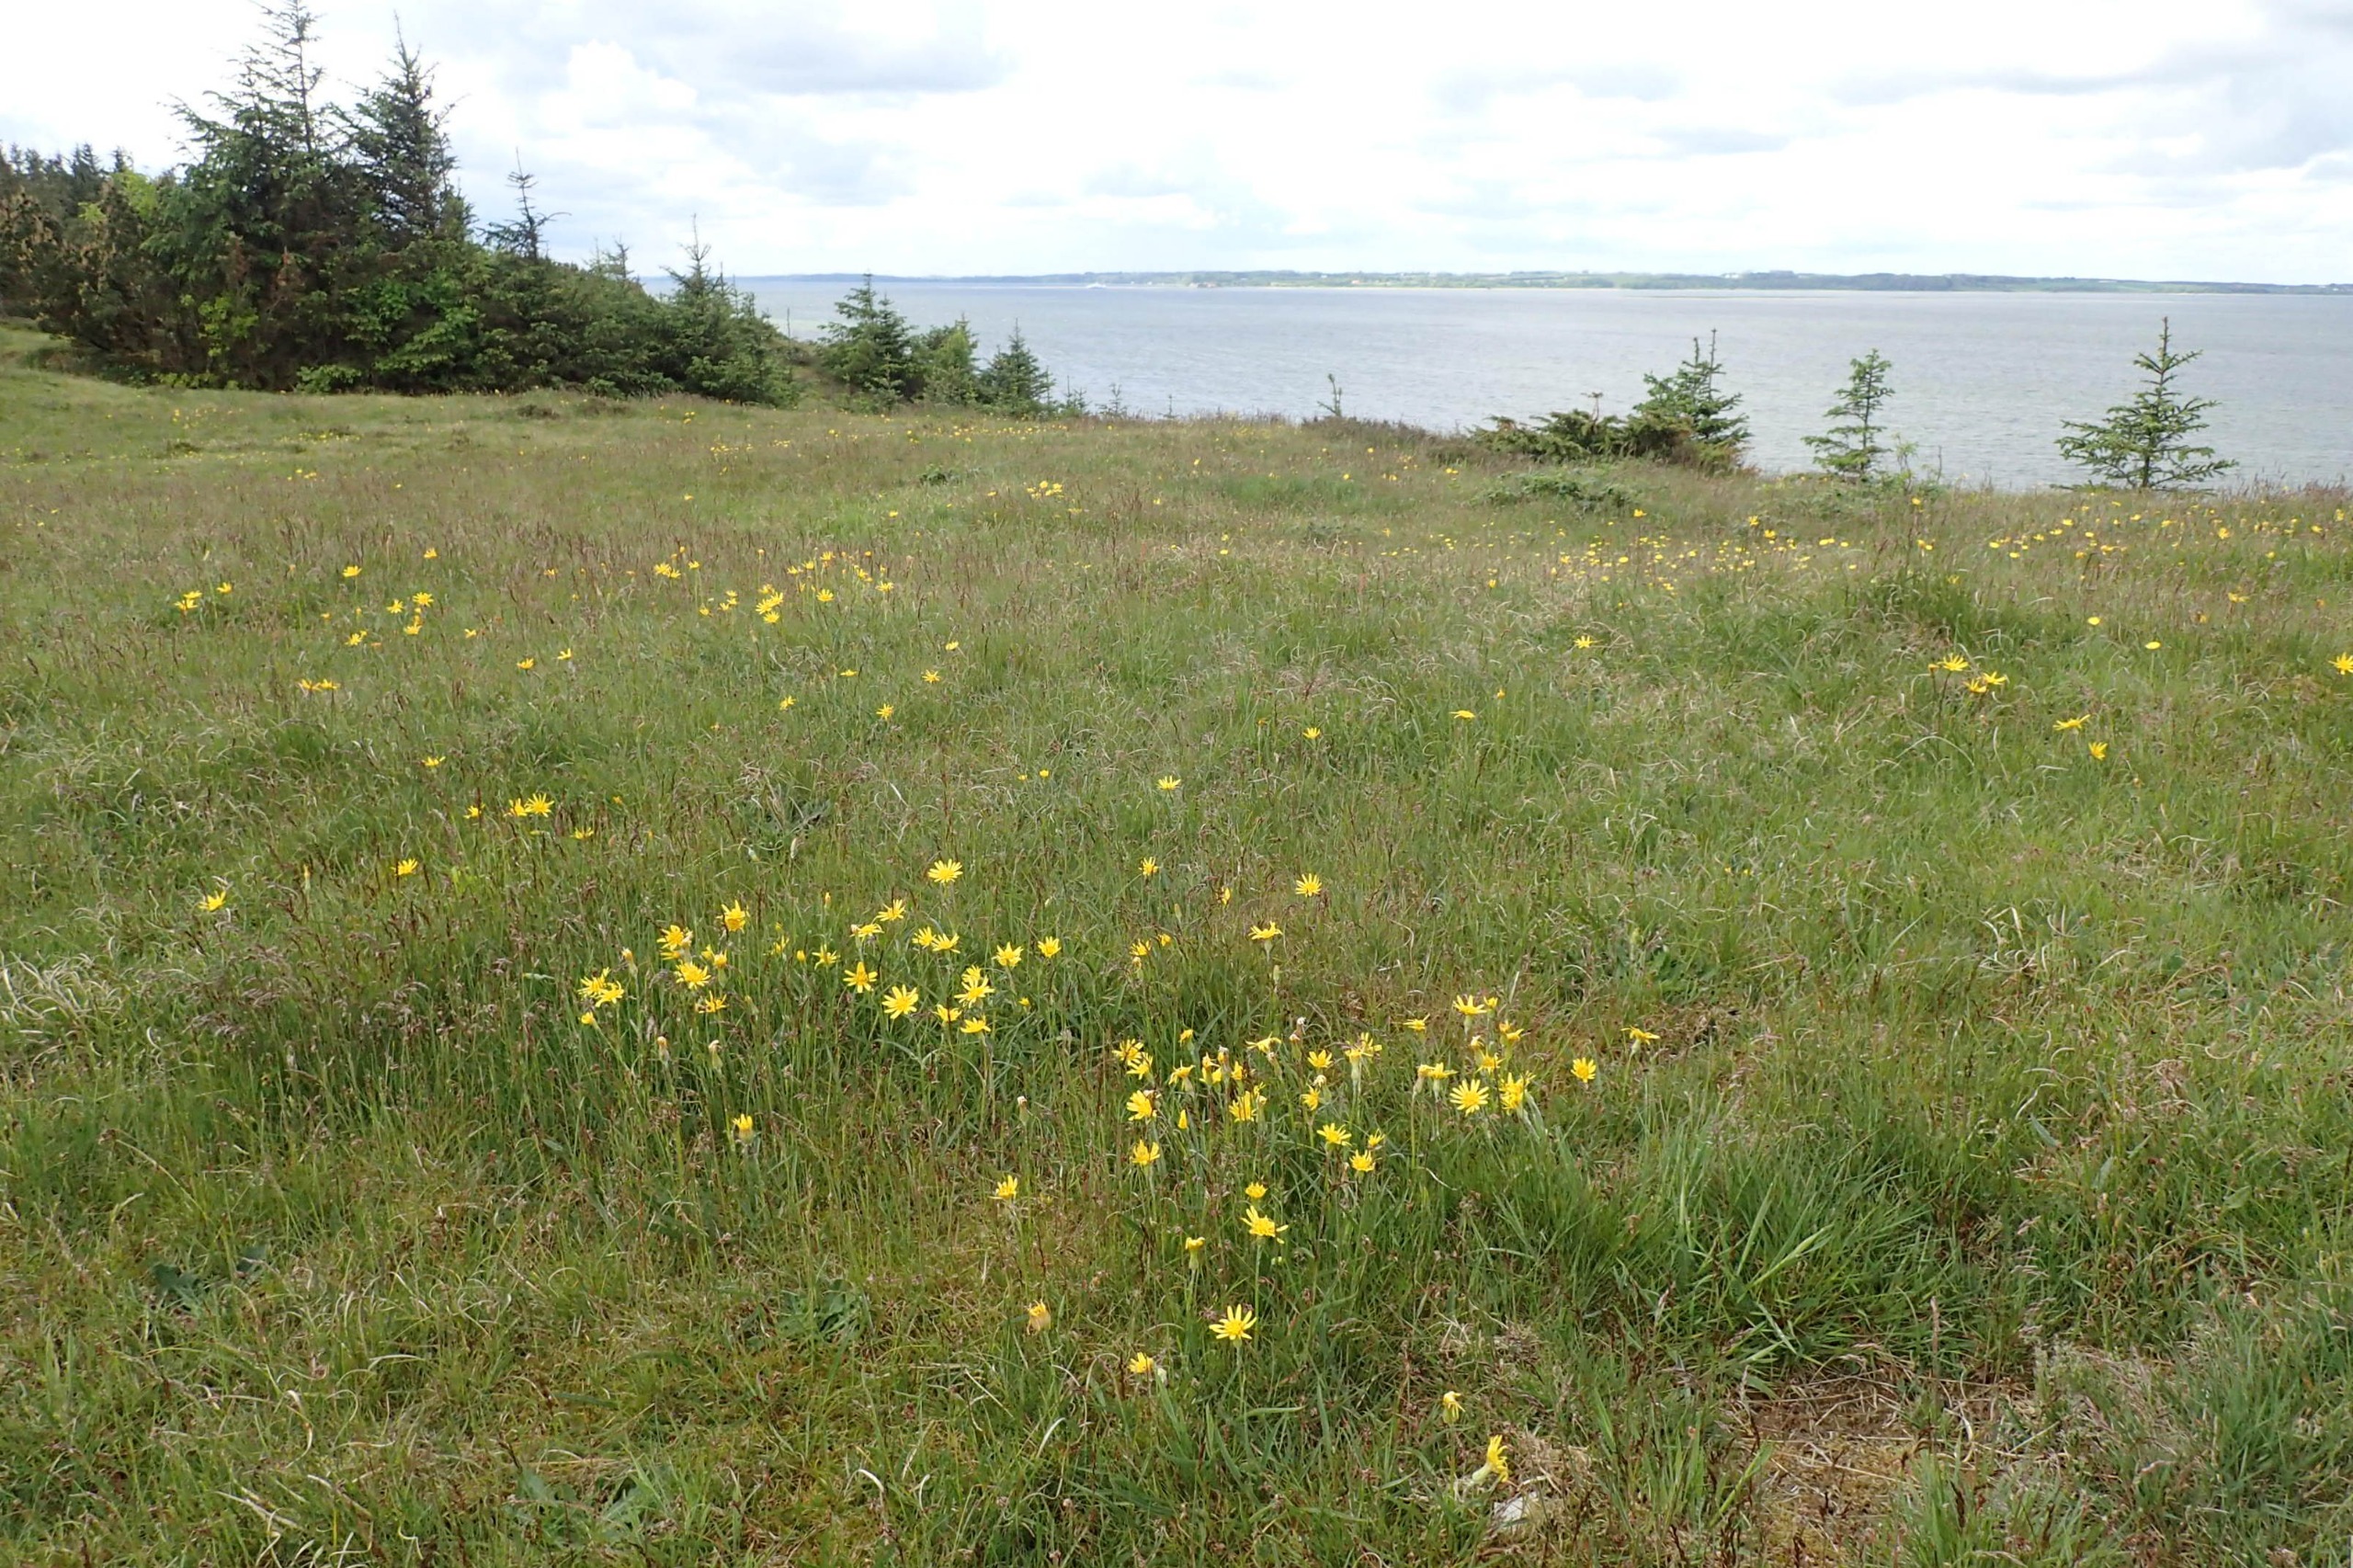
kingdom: Plantae
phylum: Tracheophyta
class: Magnoliopsida
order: Asterales
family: Asteraceae
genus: Scorzonera
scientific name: Scorzonera humilis
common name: Lav skorsoner
